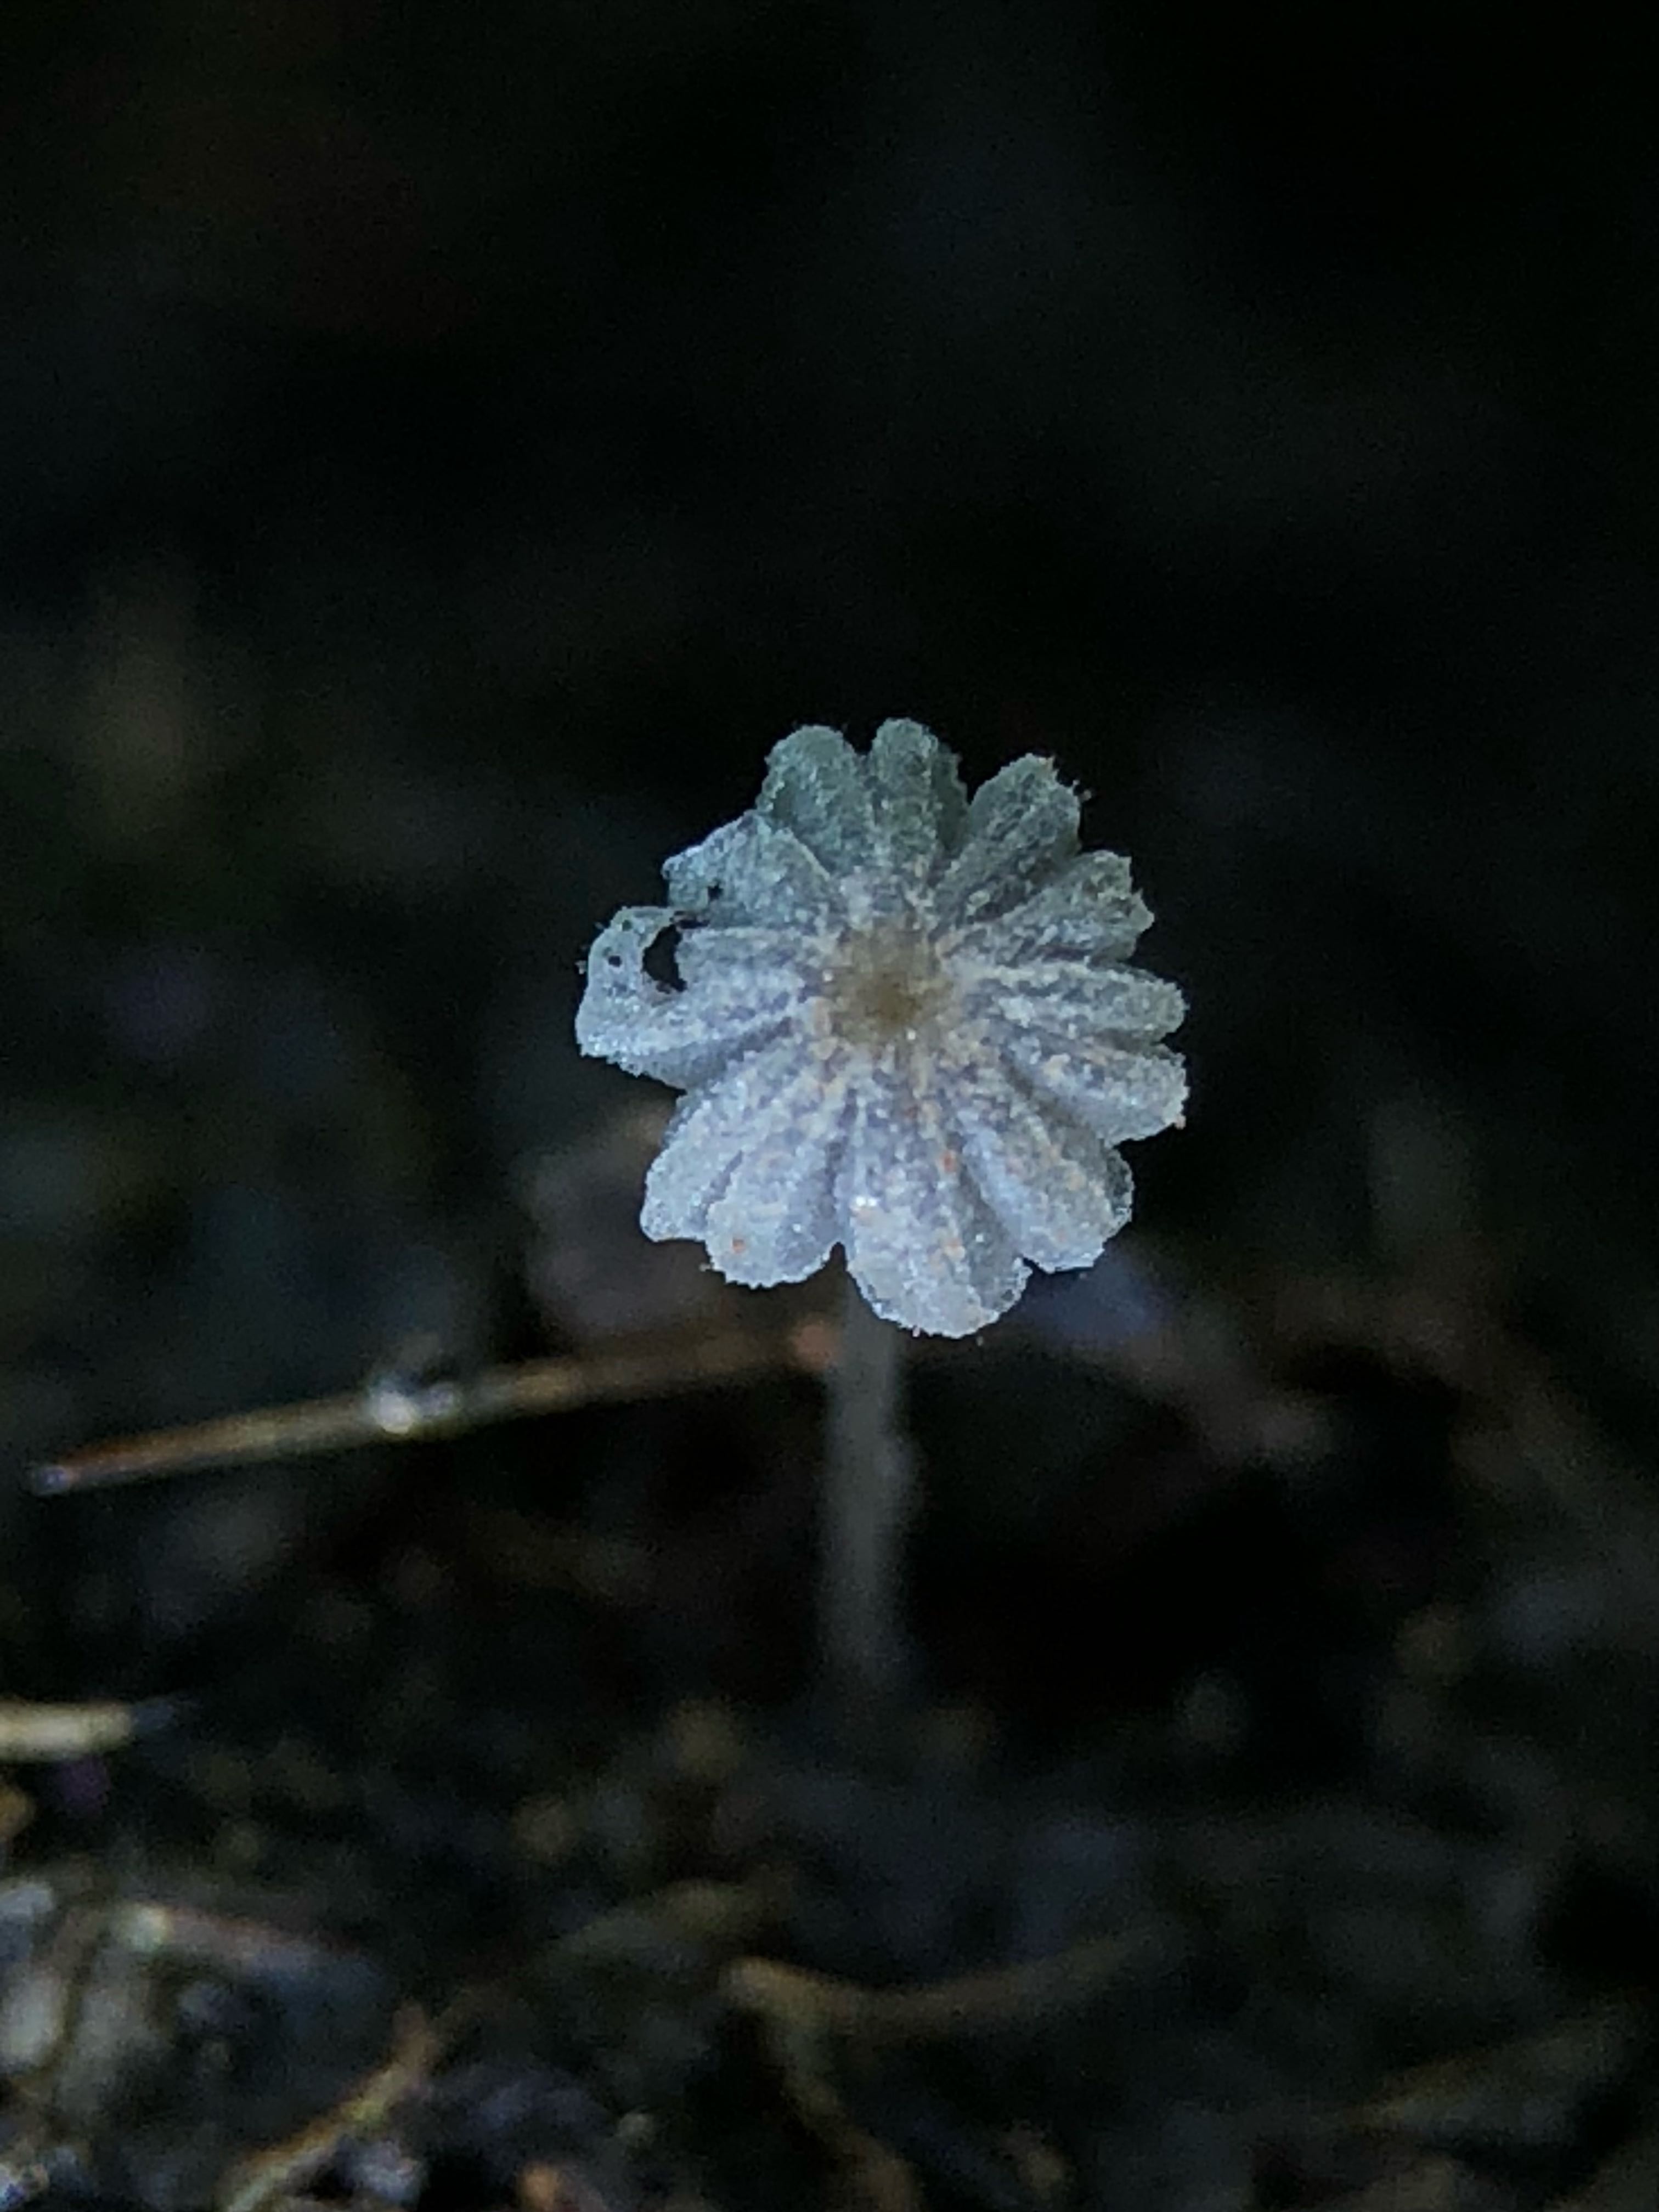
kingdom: Fungi
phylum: Basidiomycota
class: Agaricomycetes
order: Agaricales
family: Psathyrellaceae
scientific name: Psathyrellaceae
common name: mørkhatfamilien
